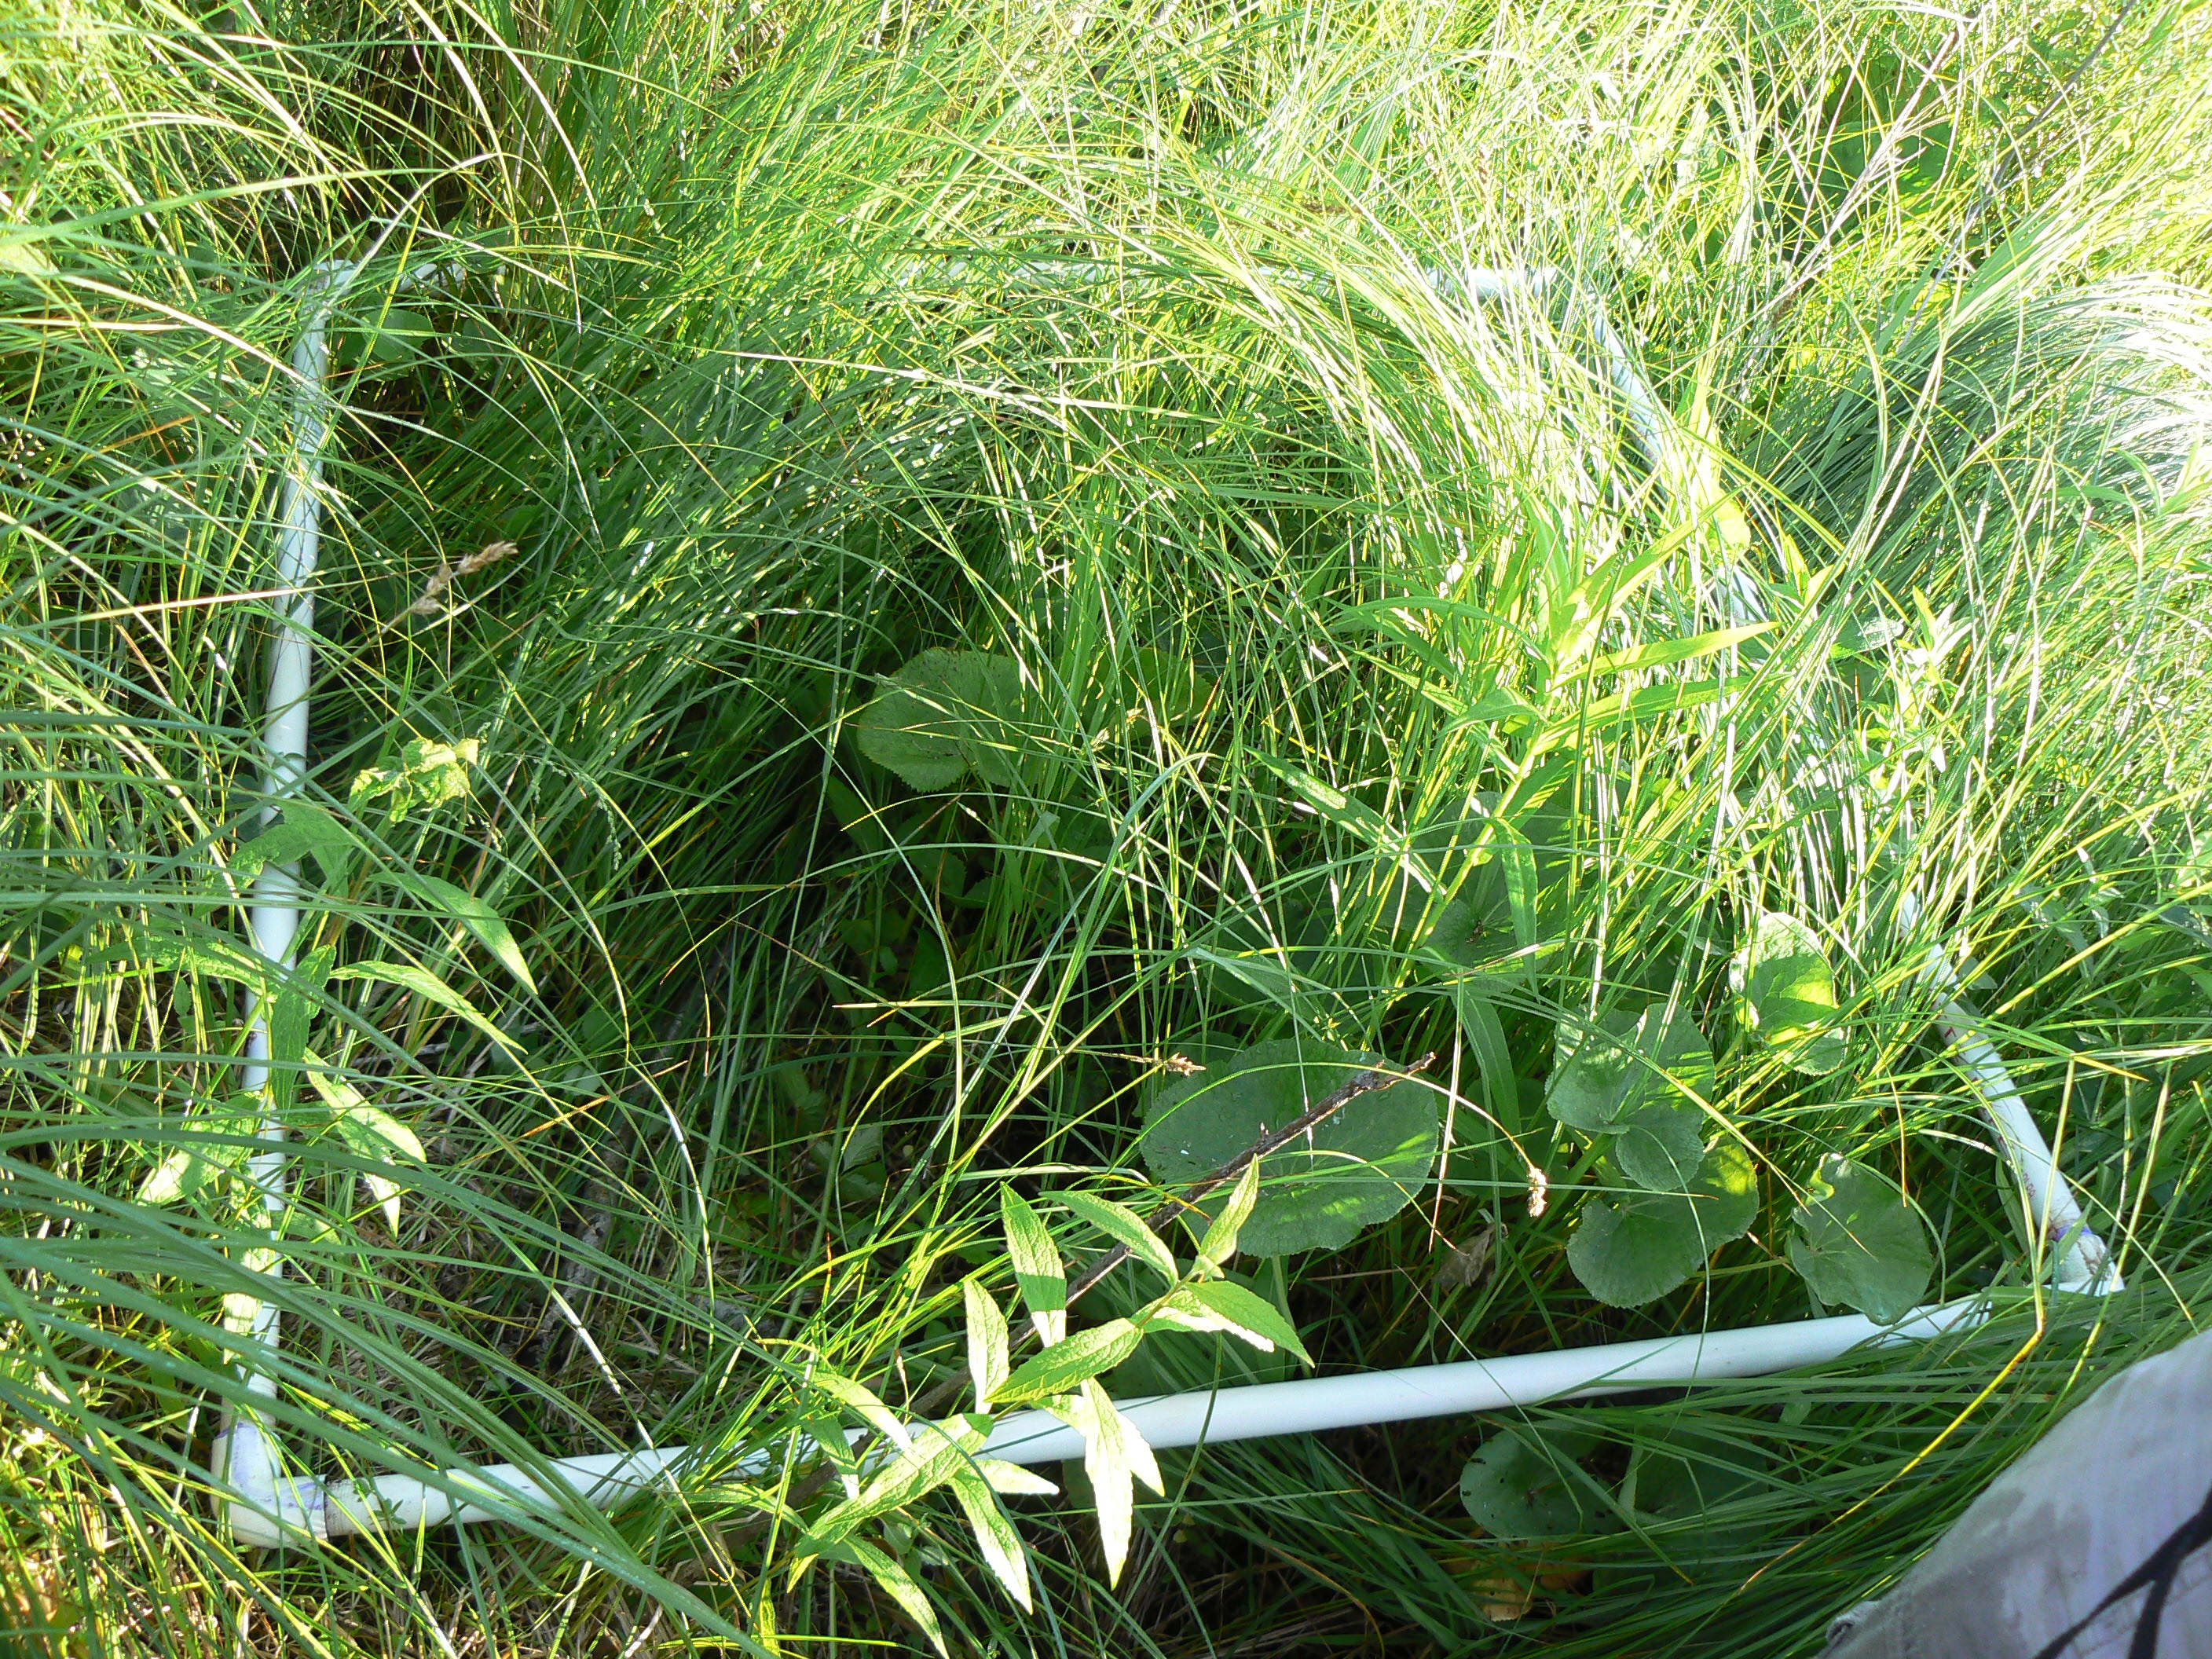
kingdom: Plantae
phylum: Tracheophyta
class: Liliopsida
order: Poales
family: Cyperaceae
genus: Carex
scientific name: Carex stricta
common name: Hummock sedge
